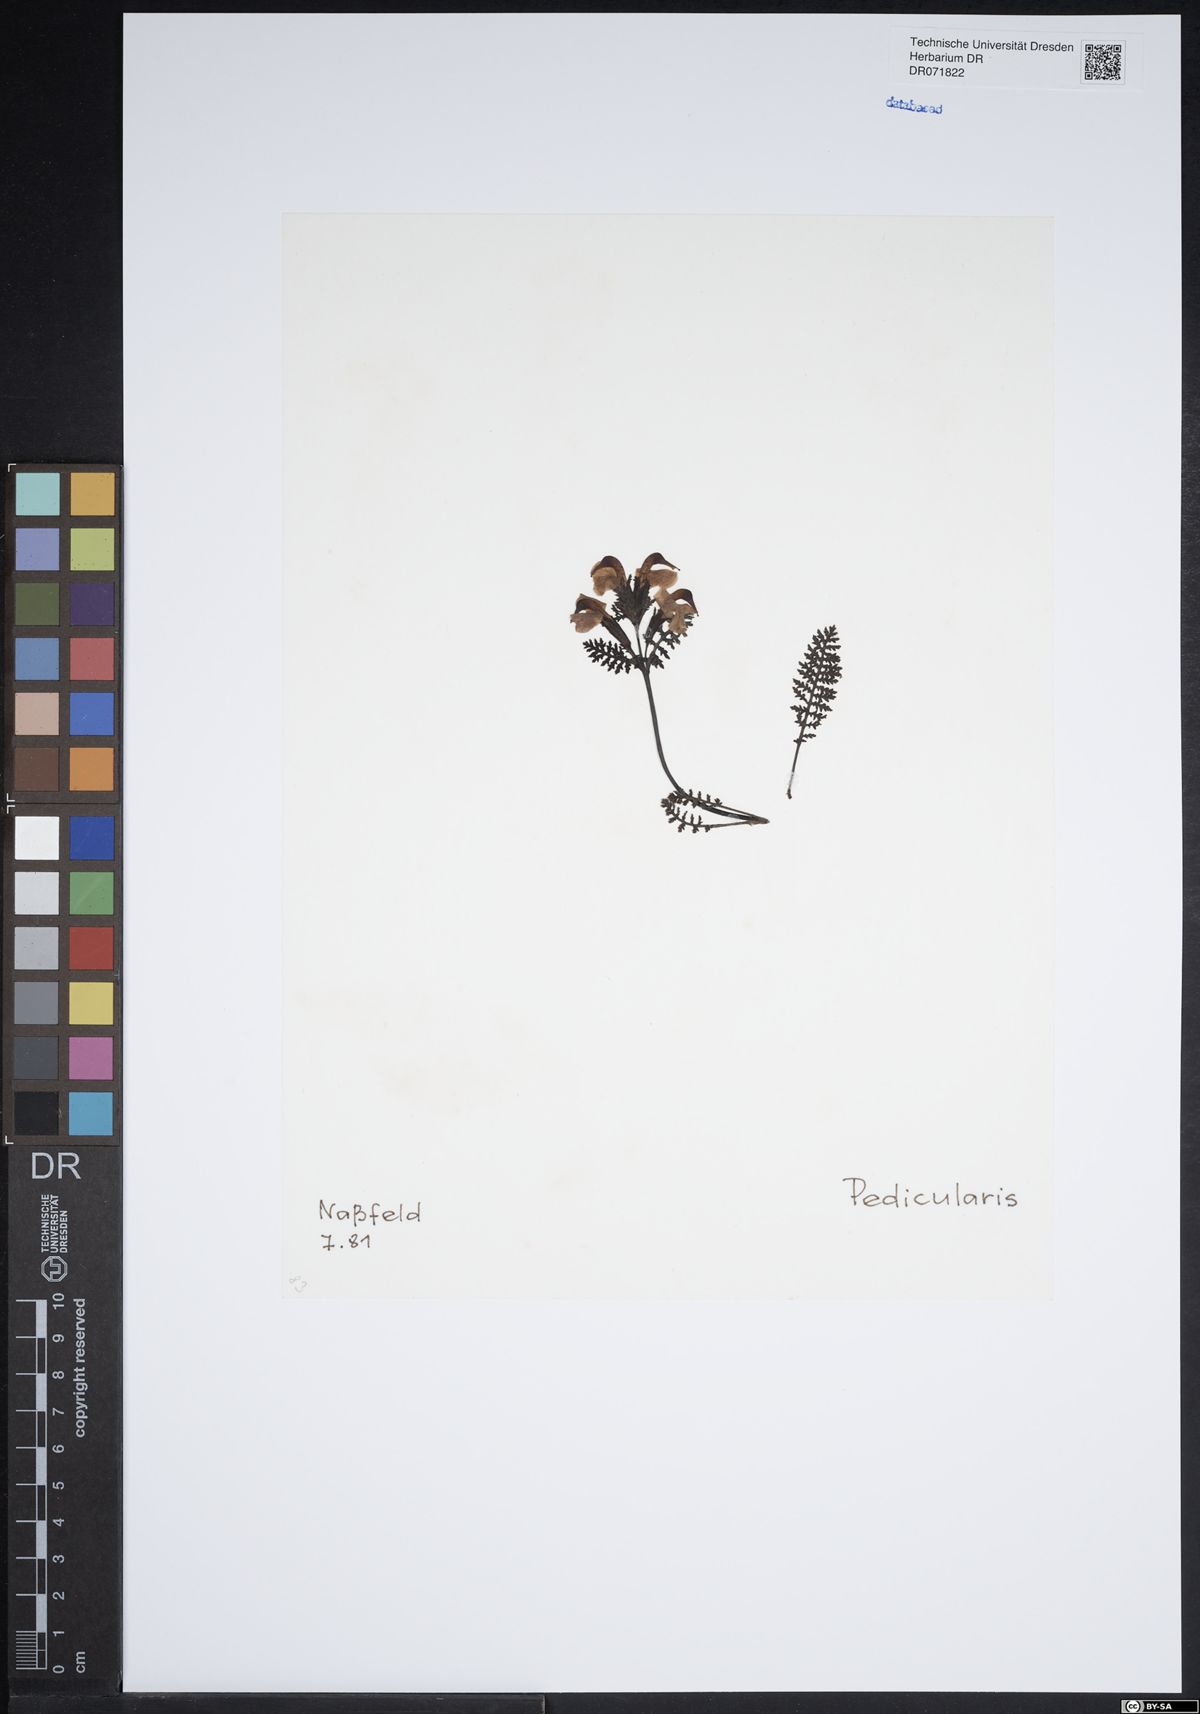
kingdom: Plantae
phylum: Tracheophyta
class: Magnoliopsida
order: Lamiales
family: Orobanchaceae
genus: Pedicularis
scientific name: Pedicularis
